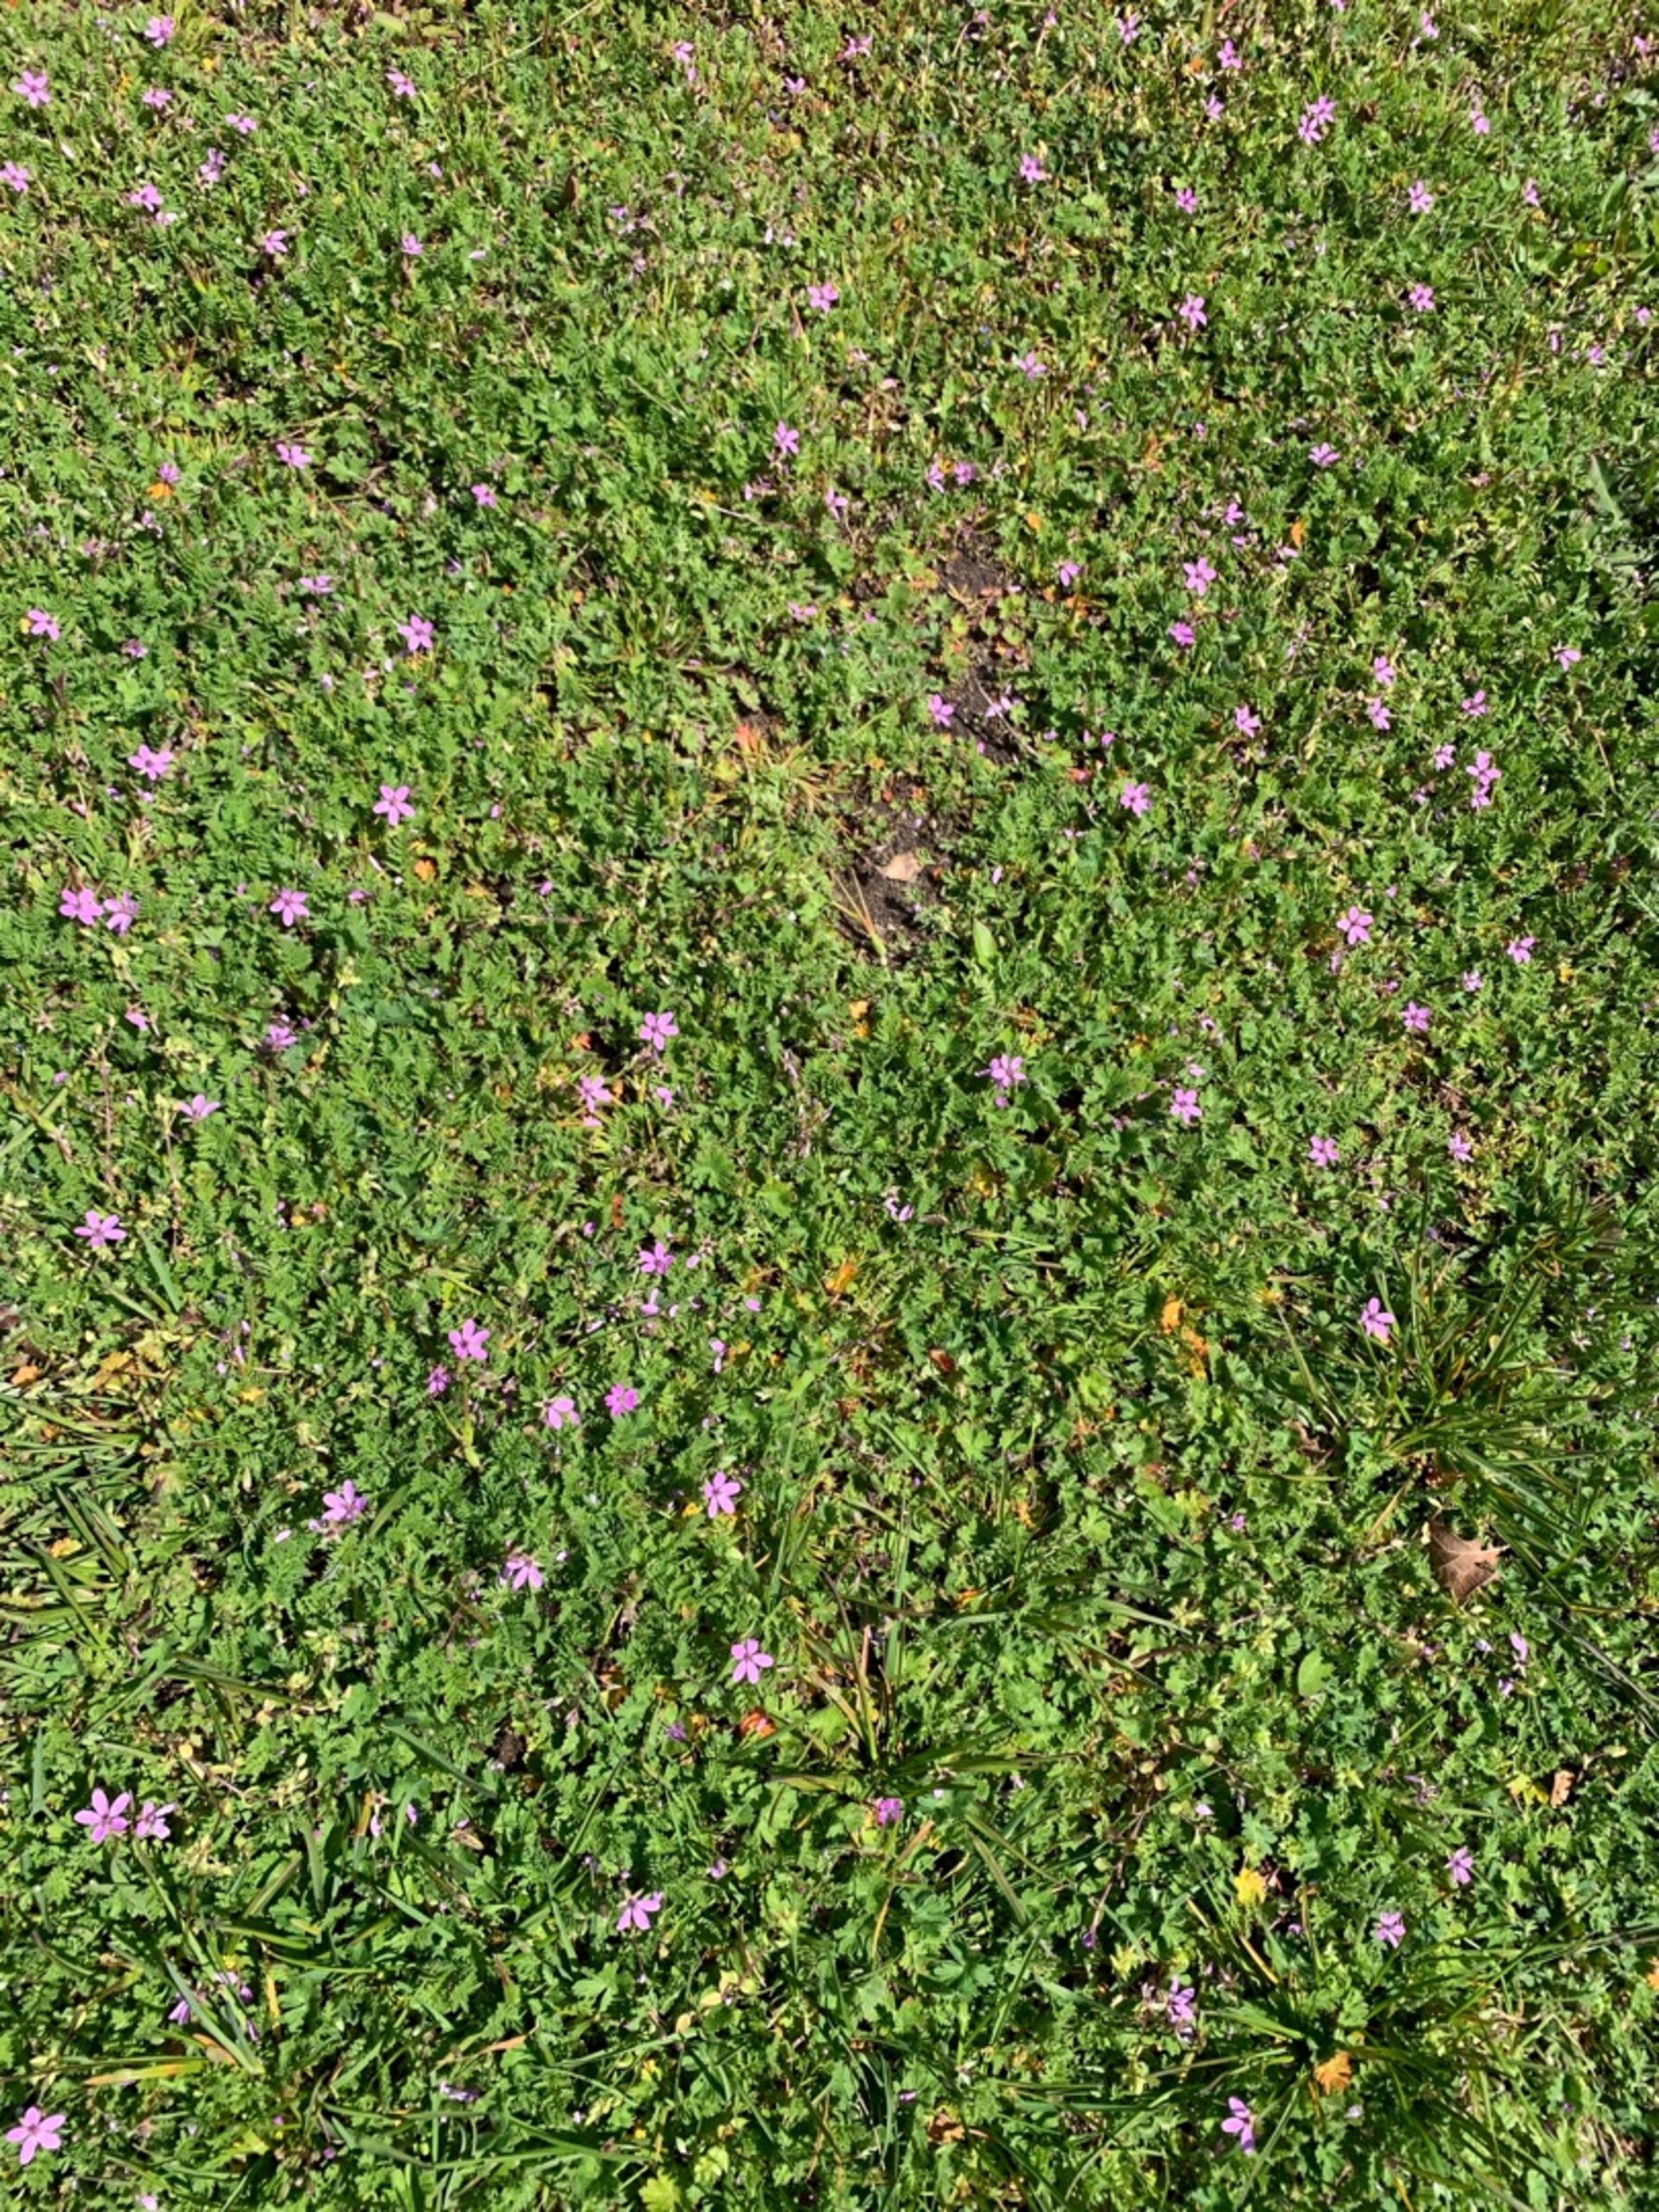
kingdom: Plantae
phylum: Tracheophyta
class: Magnoliopsida
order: Geraniales
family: Geraniaceae
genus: Erodium
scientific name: Erodium cicutarium
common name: Hejrenæb
